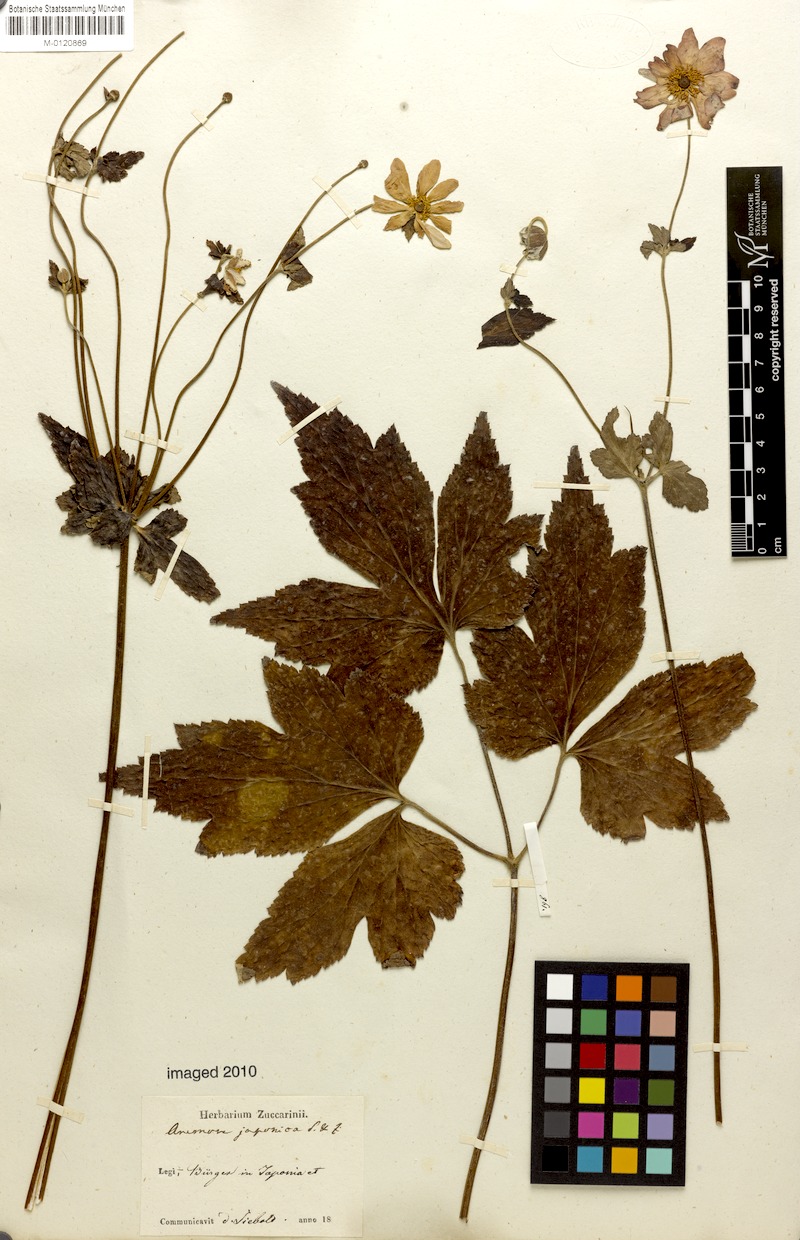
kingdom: Plantae
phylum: Tracheophyta
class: Magnoliopsida
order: Ranunculales
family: Ranunculaceae
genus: Eriocapitella
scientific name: Eriocapitella japonica
